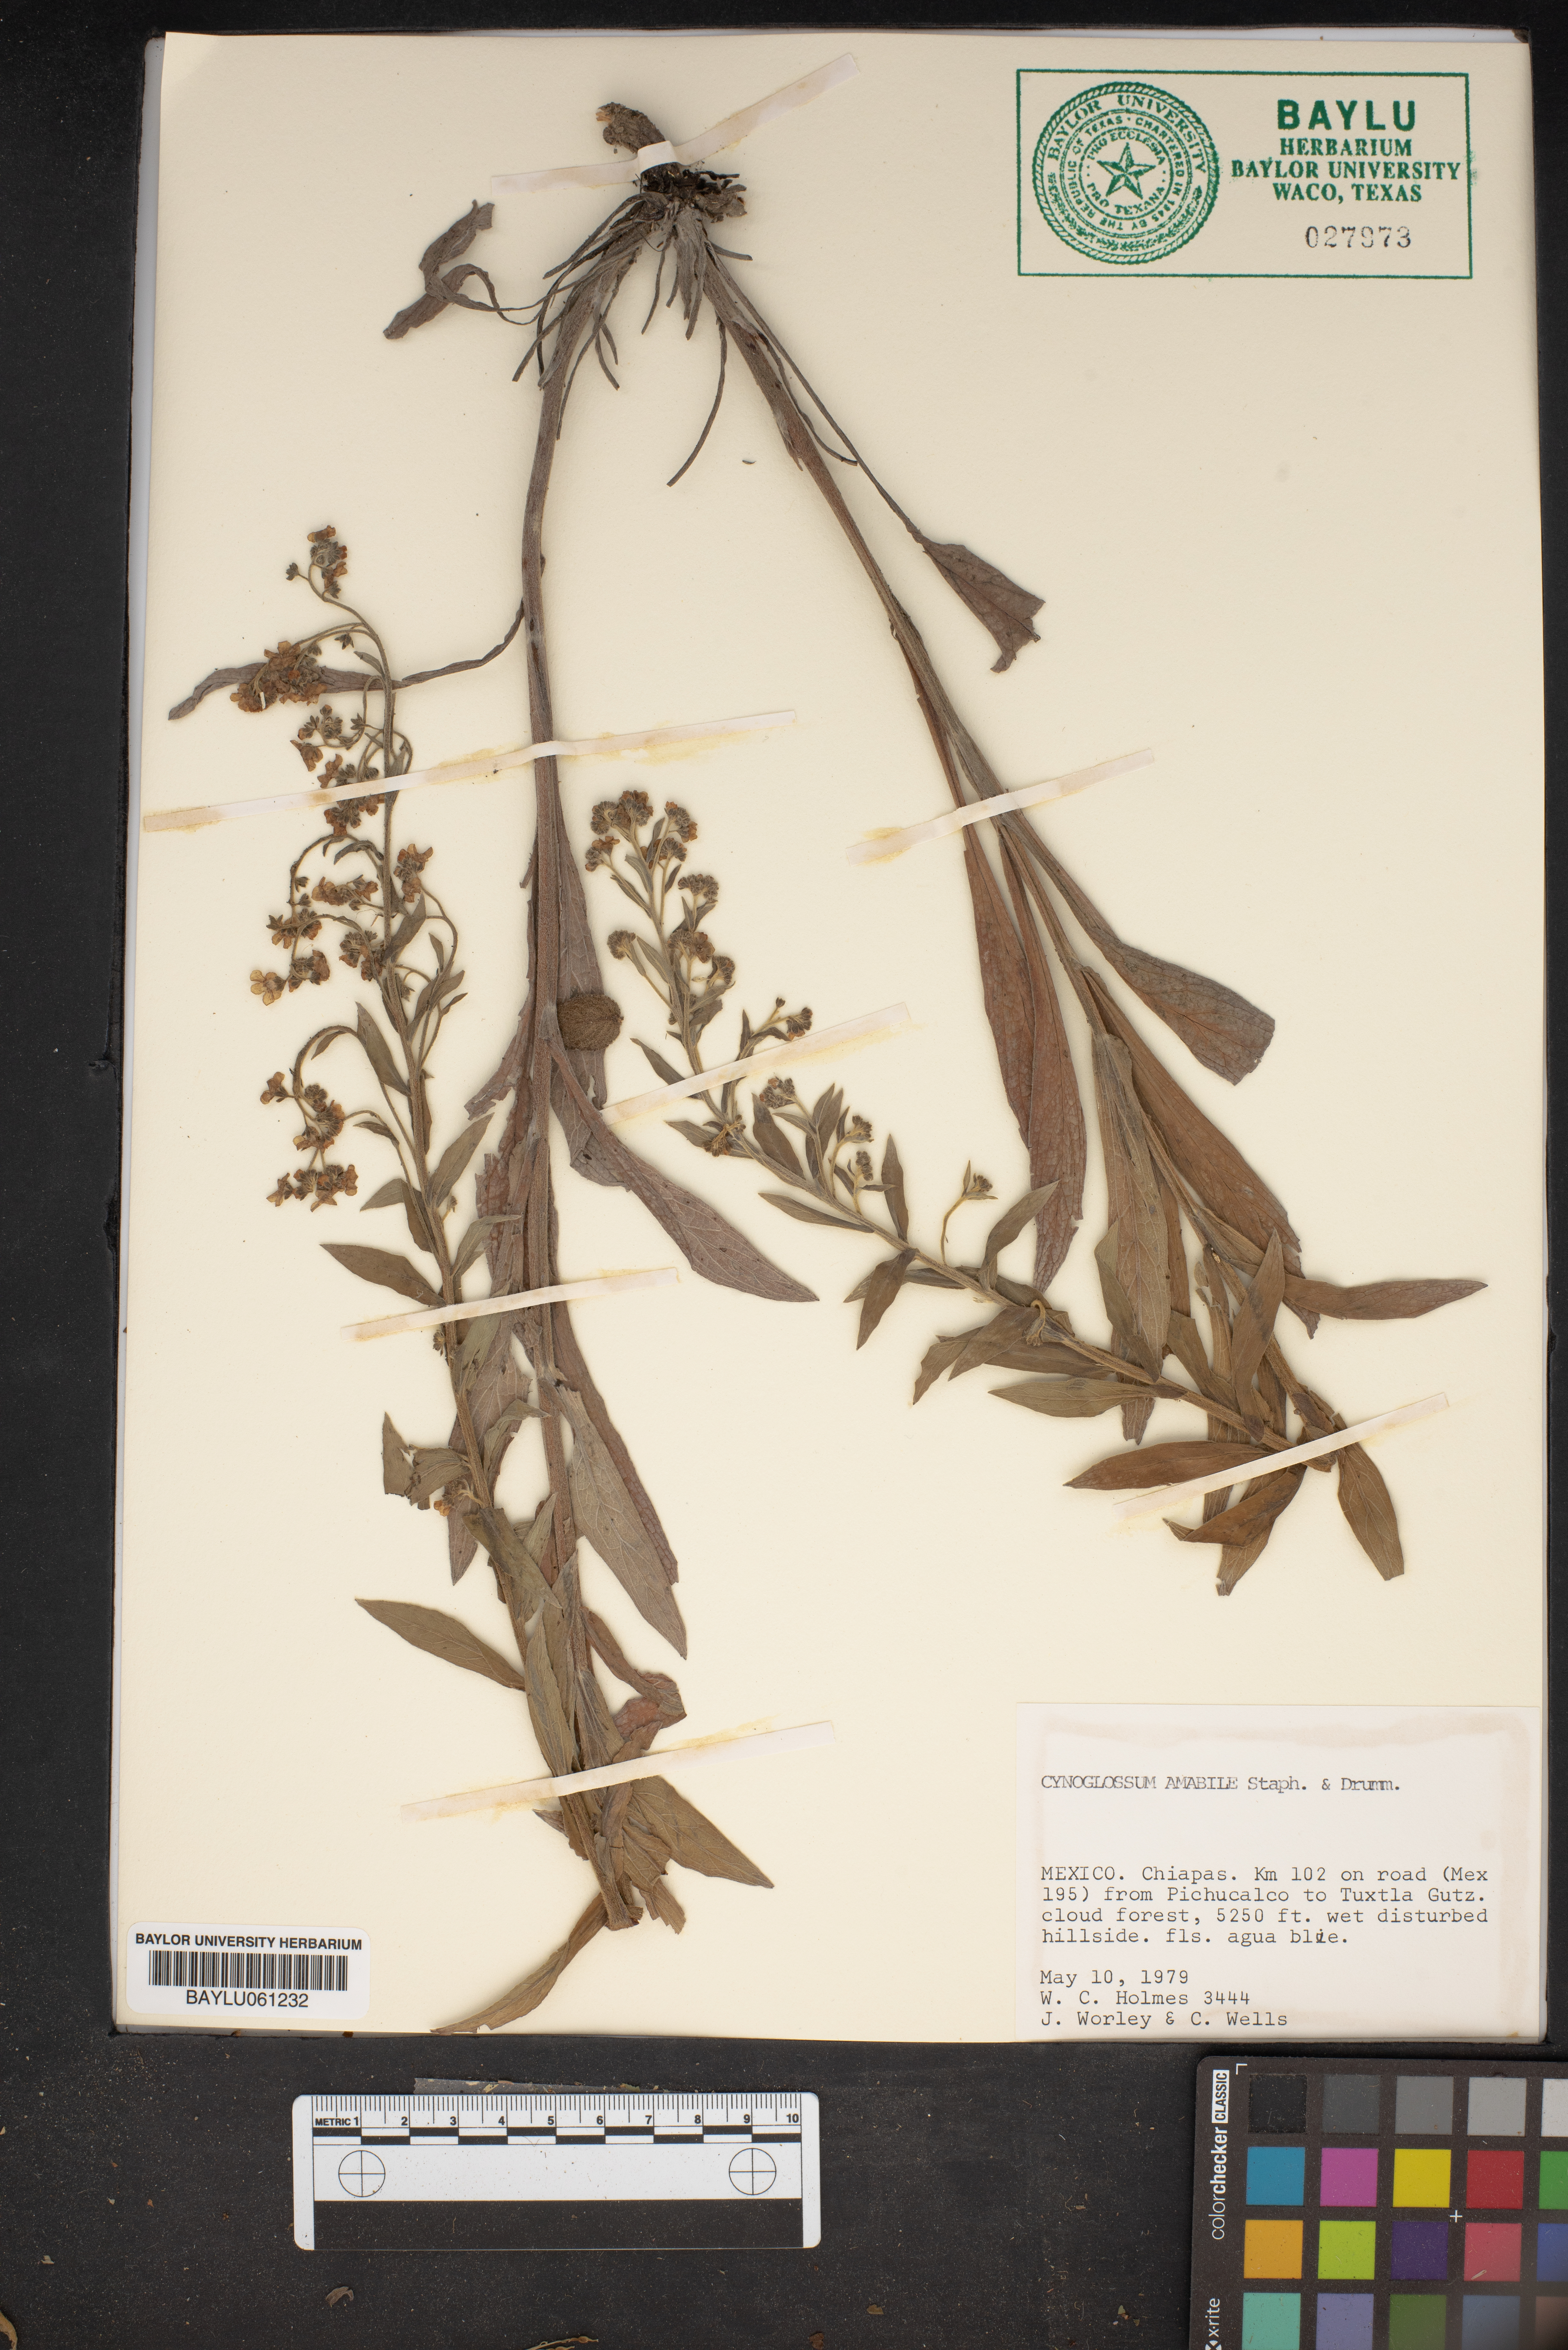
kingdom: Plantae
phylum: Tracheophyta
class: Magnoliopsida
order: Boraginales
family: Boraginaceae
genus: Cynoglossum
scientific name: Cynoglossum amabile
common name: Chinese hound's tongue
